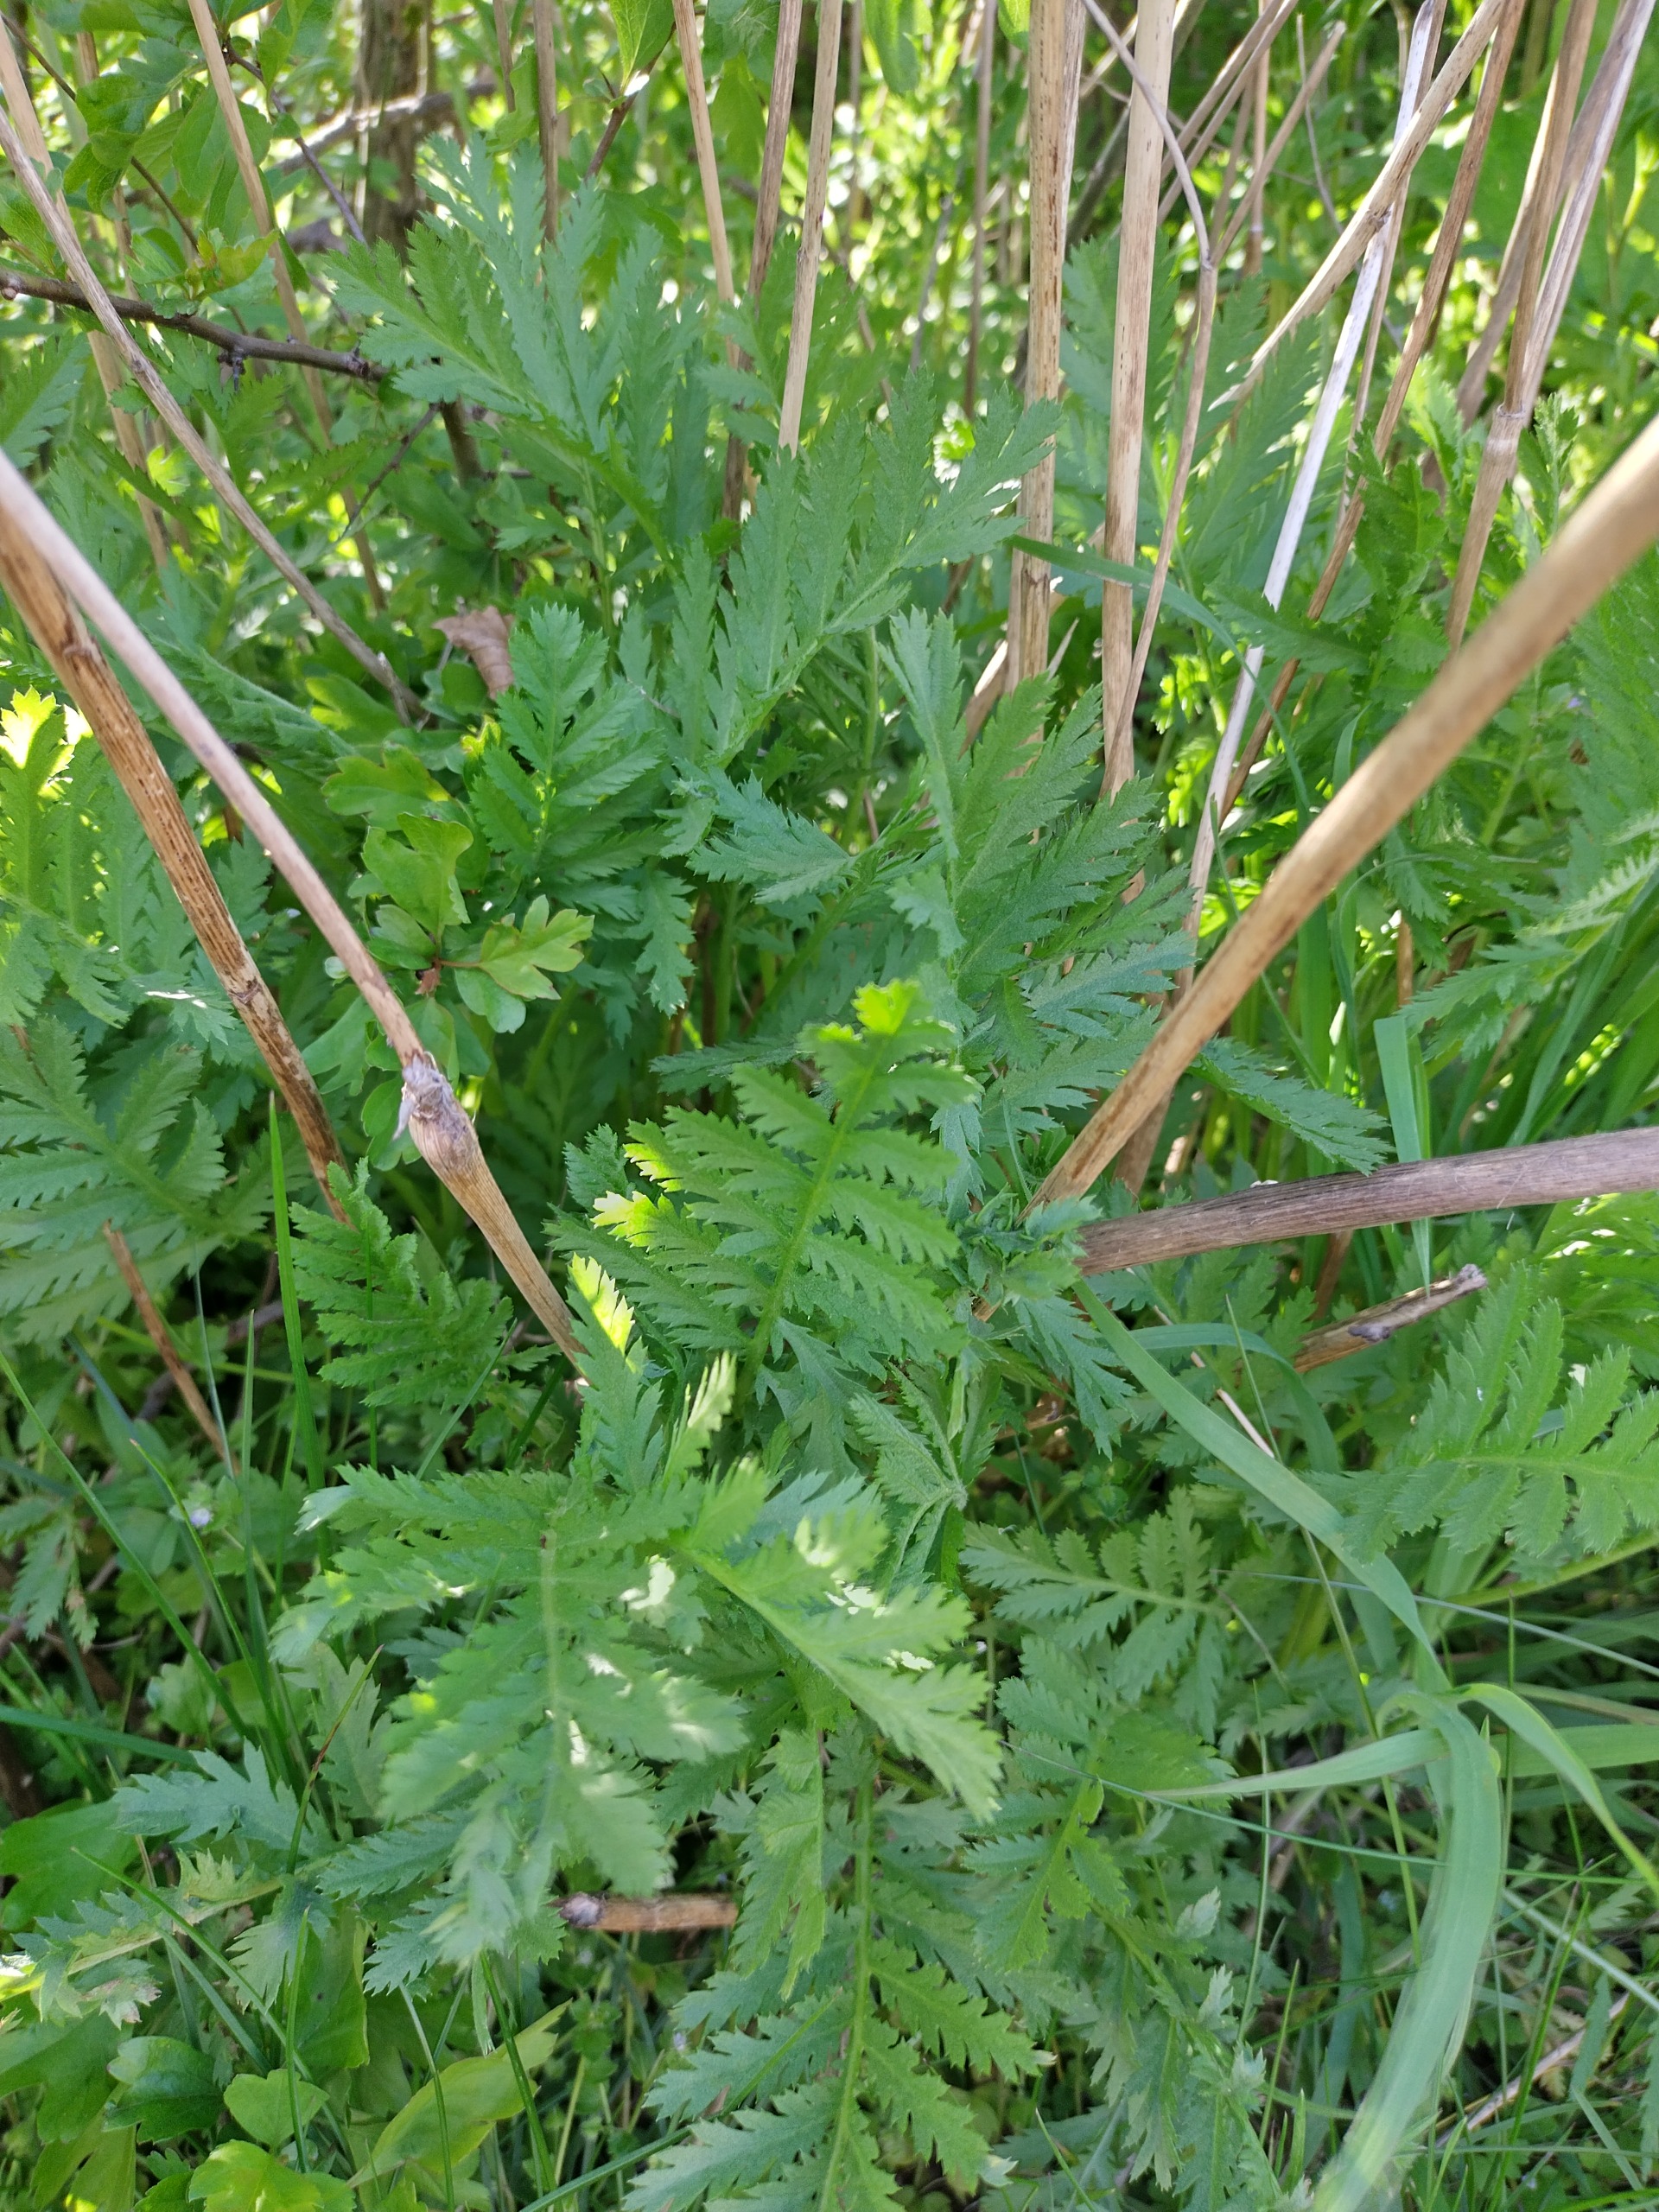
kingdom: Plantae
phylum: Tracheophyta
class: Magnoliopsida
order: Asterales
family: Asteraceae
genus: Tanacetum
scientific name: Tanacetum vulgare
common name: Rejnfan
